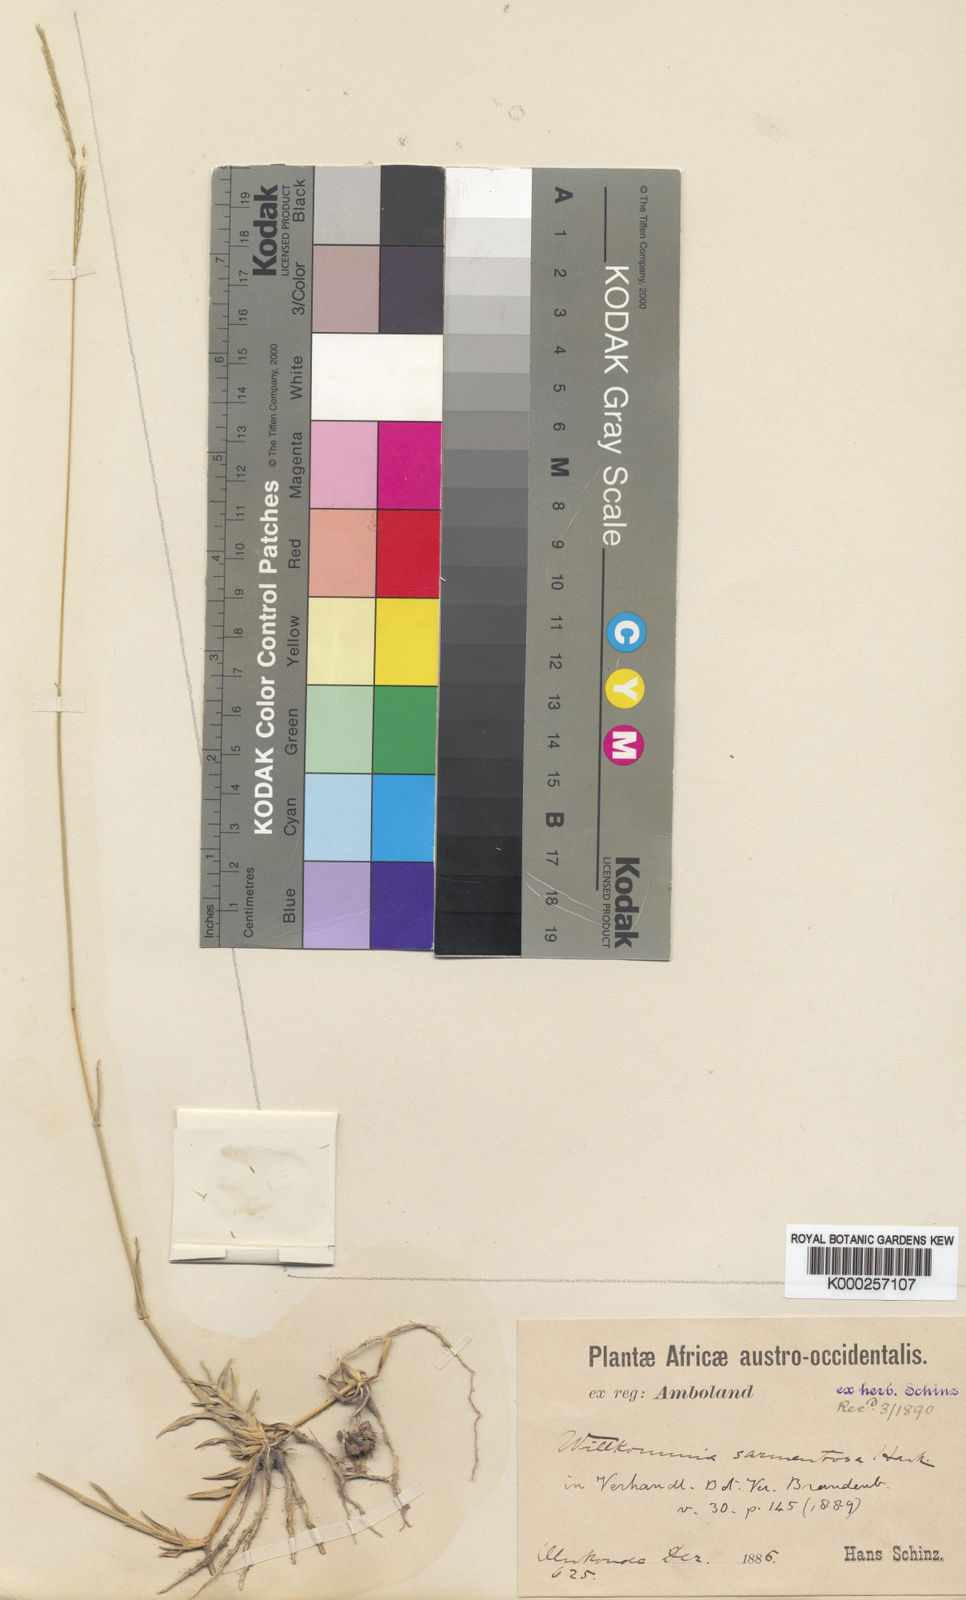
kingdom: Plantae
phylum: Tracheophyta
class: Liliopsida
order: Poales
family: Poaceae
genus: Willkommia
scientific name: Willkommia sarmentosa
